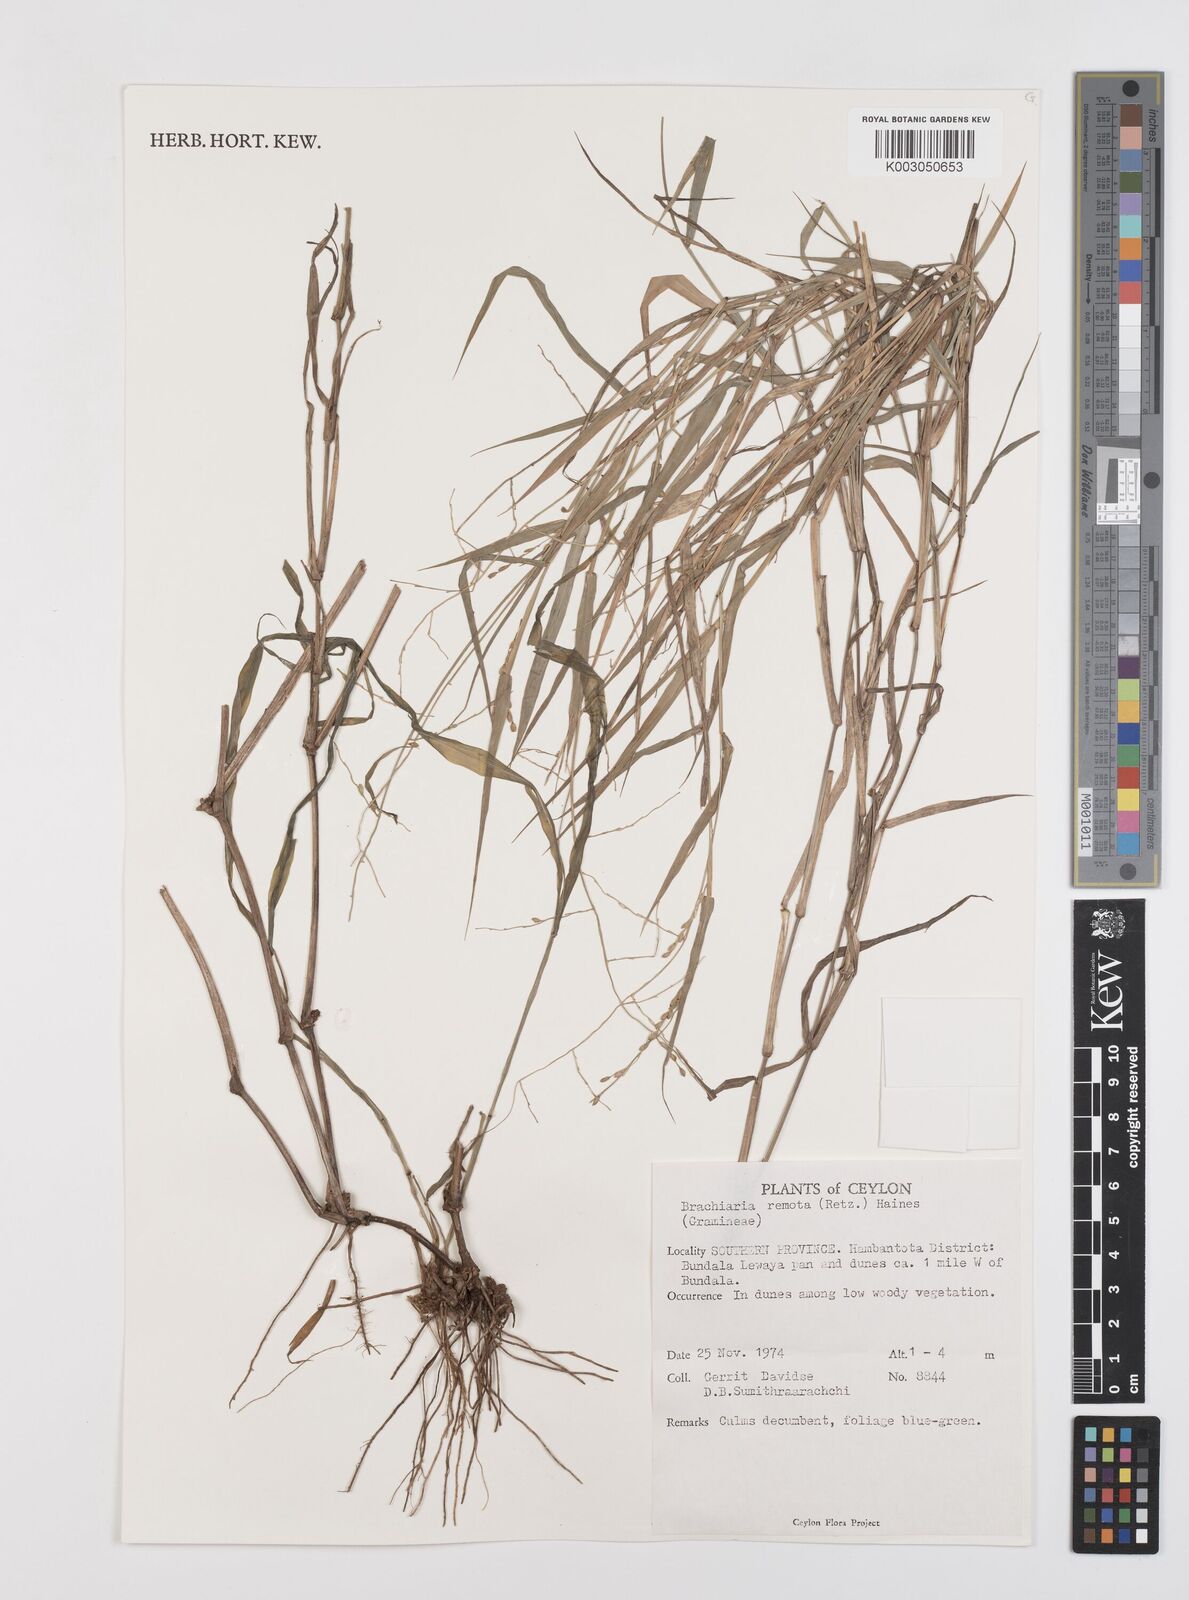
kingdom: Plantae
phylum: Tracheophyta
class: Liliopsida
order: Poales
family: Poaceae
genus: Urochloa
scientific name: Urochloa Brachiaria remota
